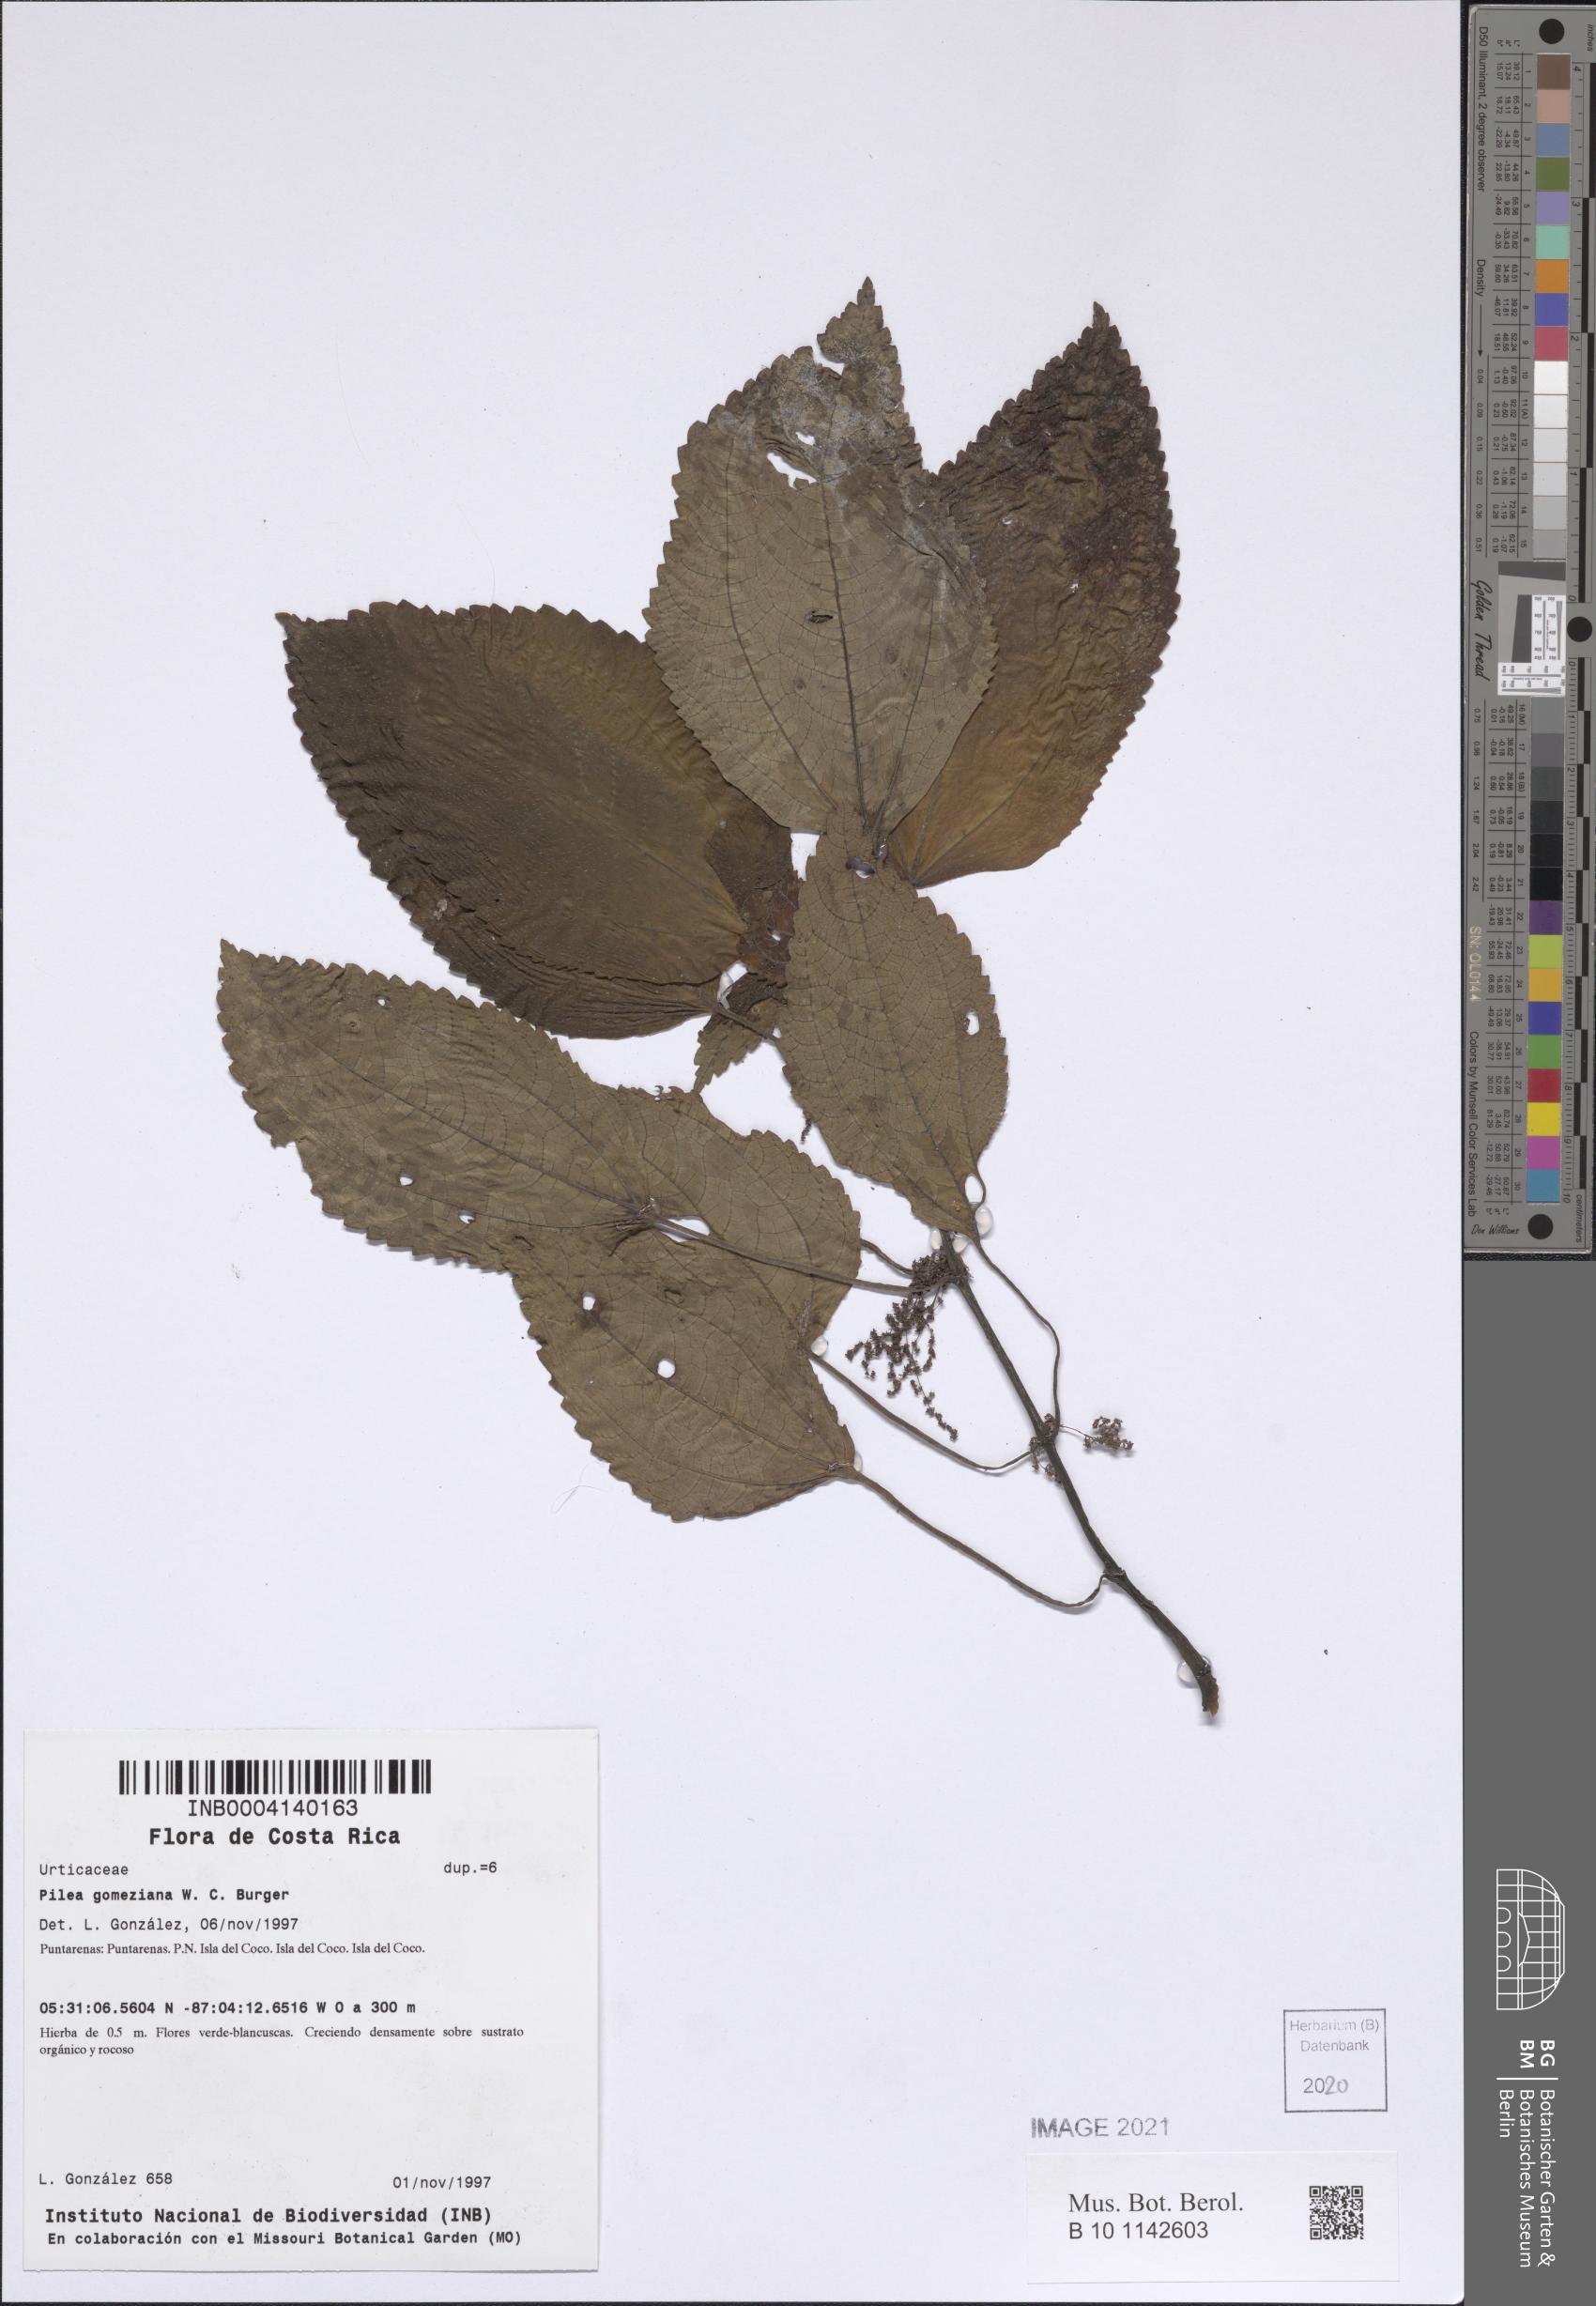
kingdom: Plantae
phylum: Tracheophyta
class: Magnoliopsida
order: Rosales
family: Urticaceae
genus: Pilea
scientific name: Pilea gomeziana
